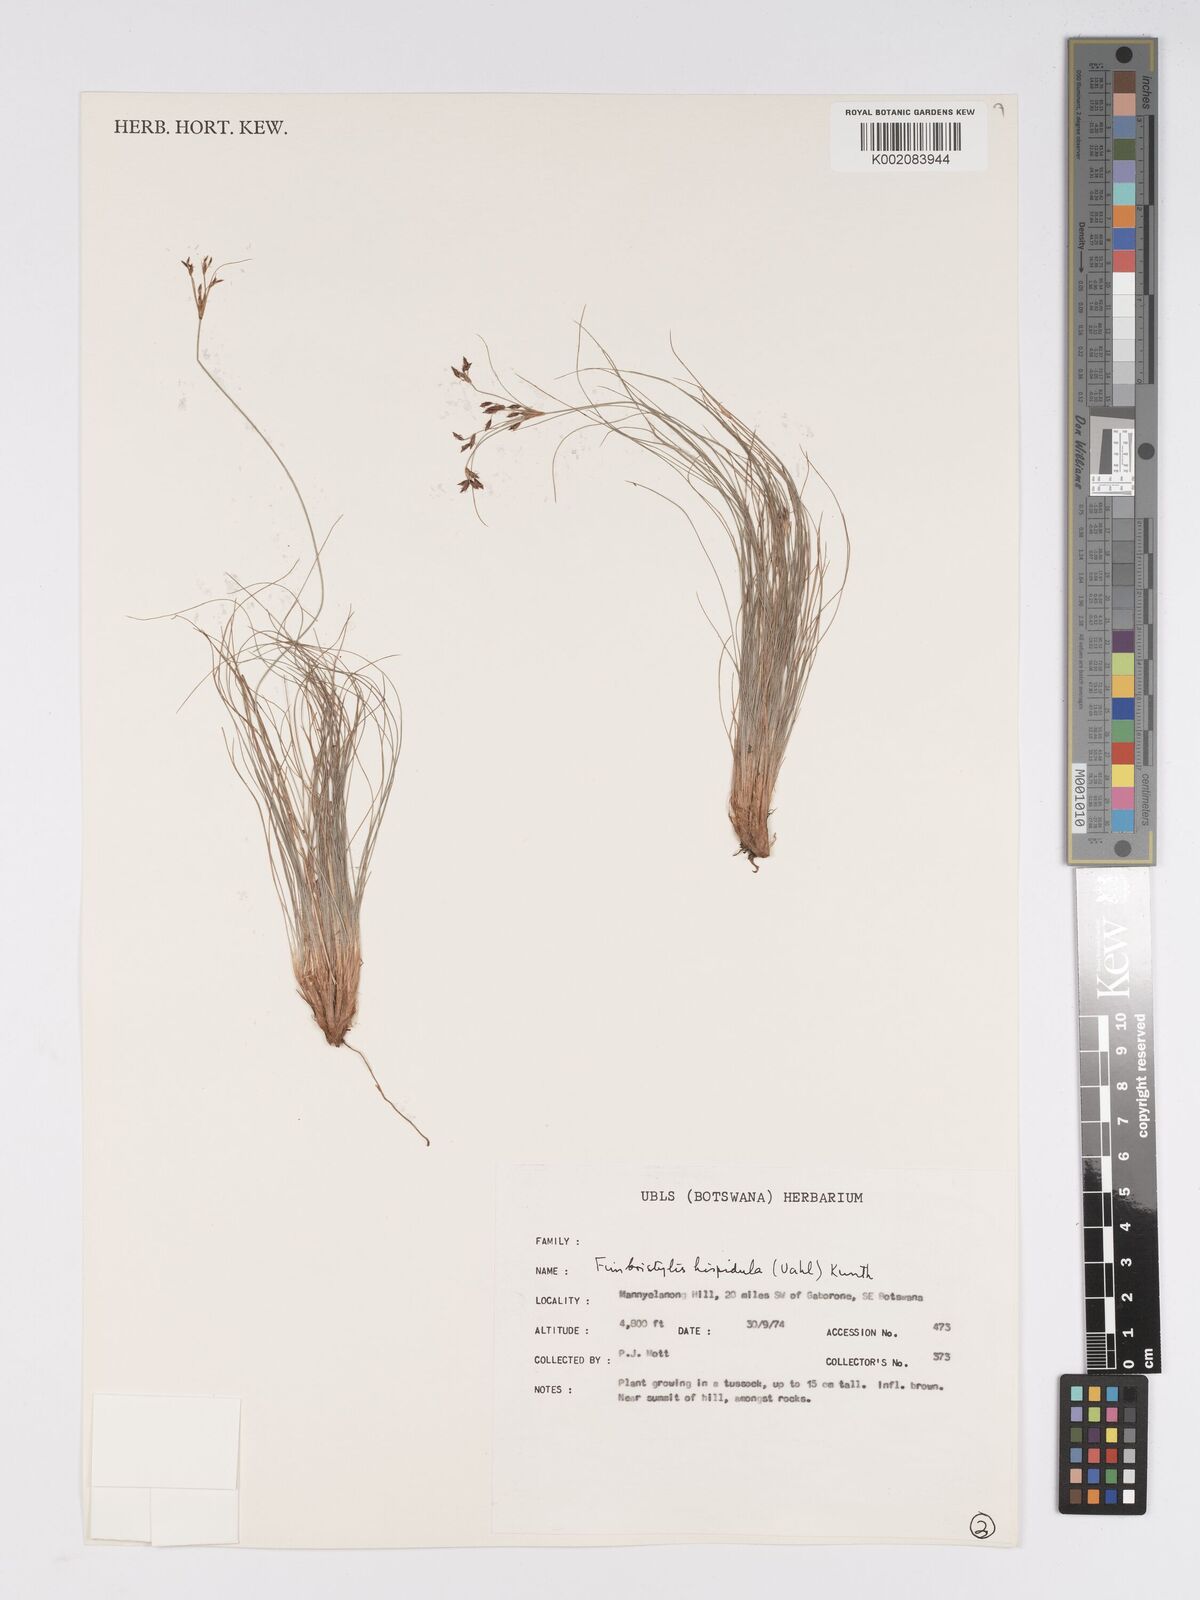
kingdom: Plantae
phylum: Tracheophyta
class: Liliopsida
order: Poales
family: Cyperaceae
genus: Bulbostylis
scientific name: Bulbostylis hispidula
